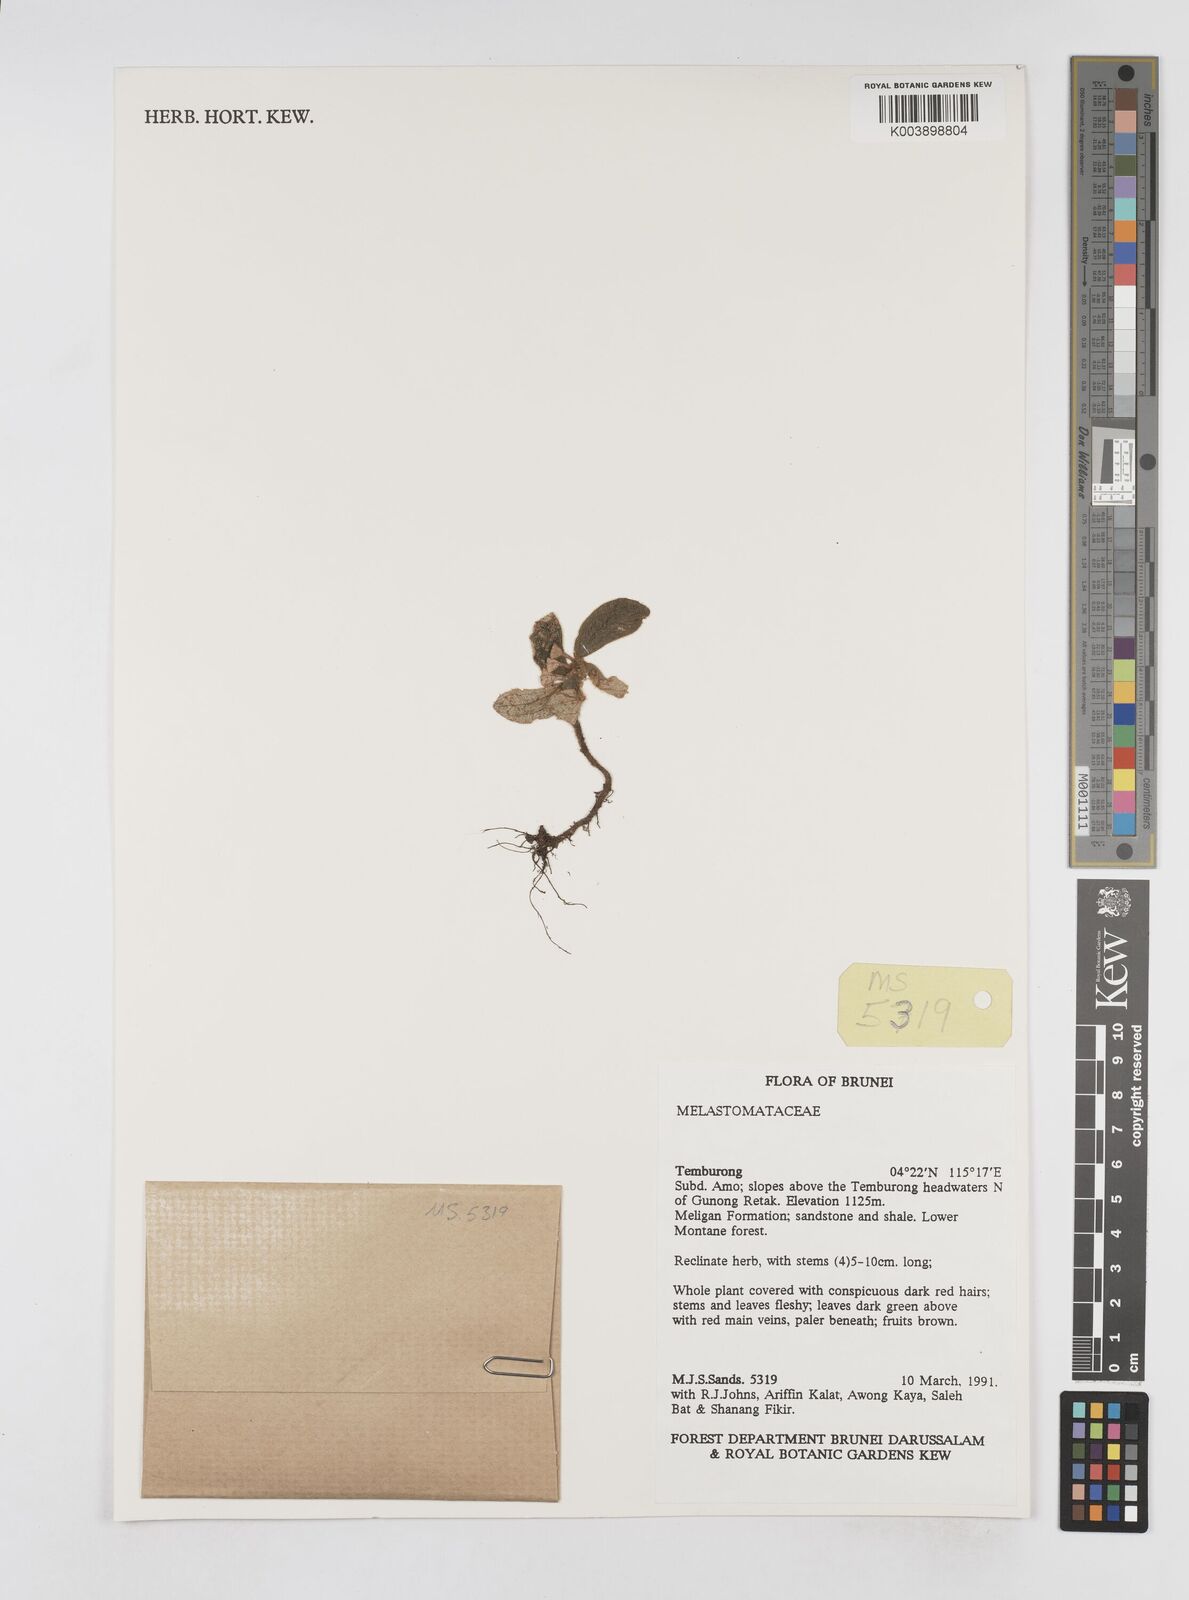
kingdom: Plantae
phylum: Tracheophyta
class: Magnoliopsida
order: Myrtales
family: Melastomataceae
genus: Sonerila
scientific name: Sonerila
